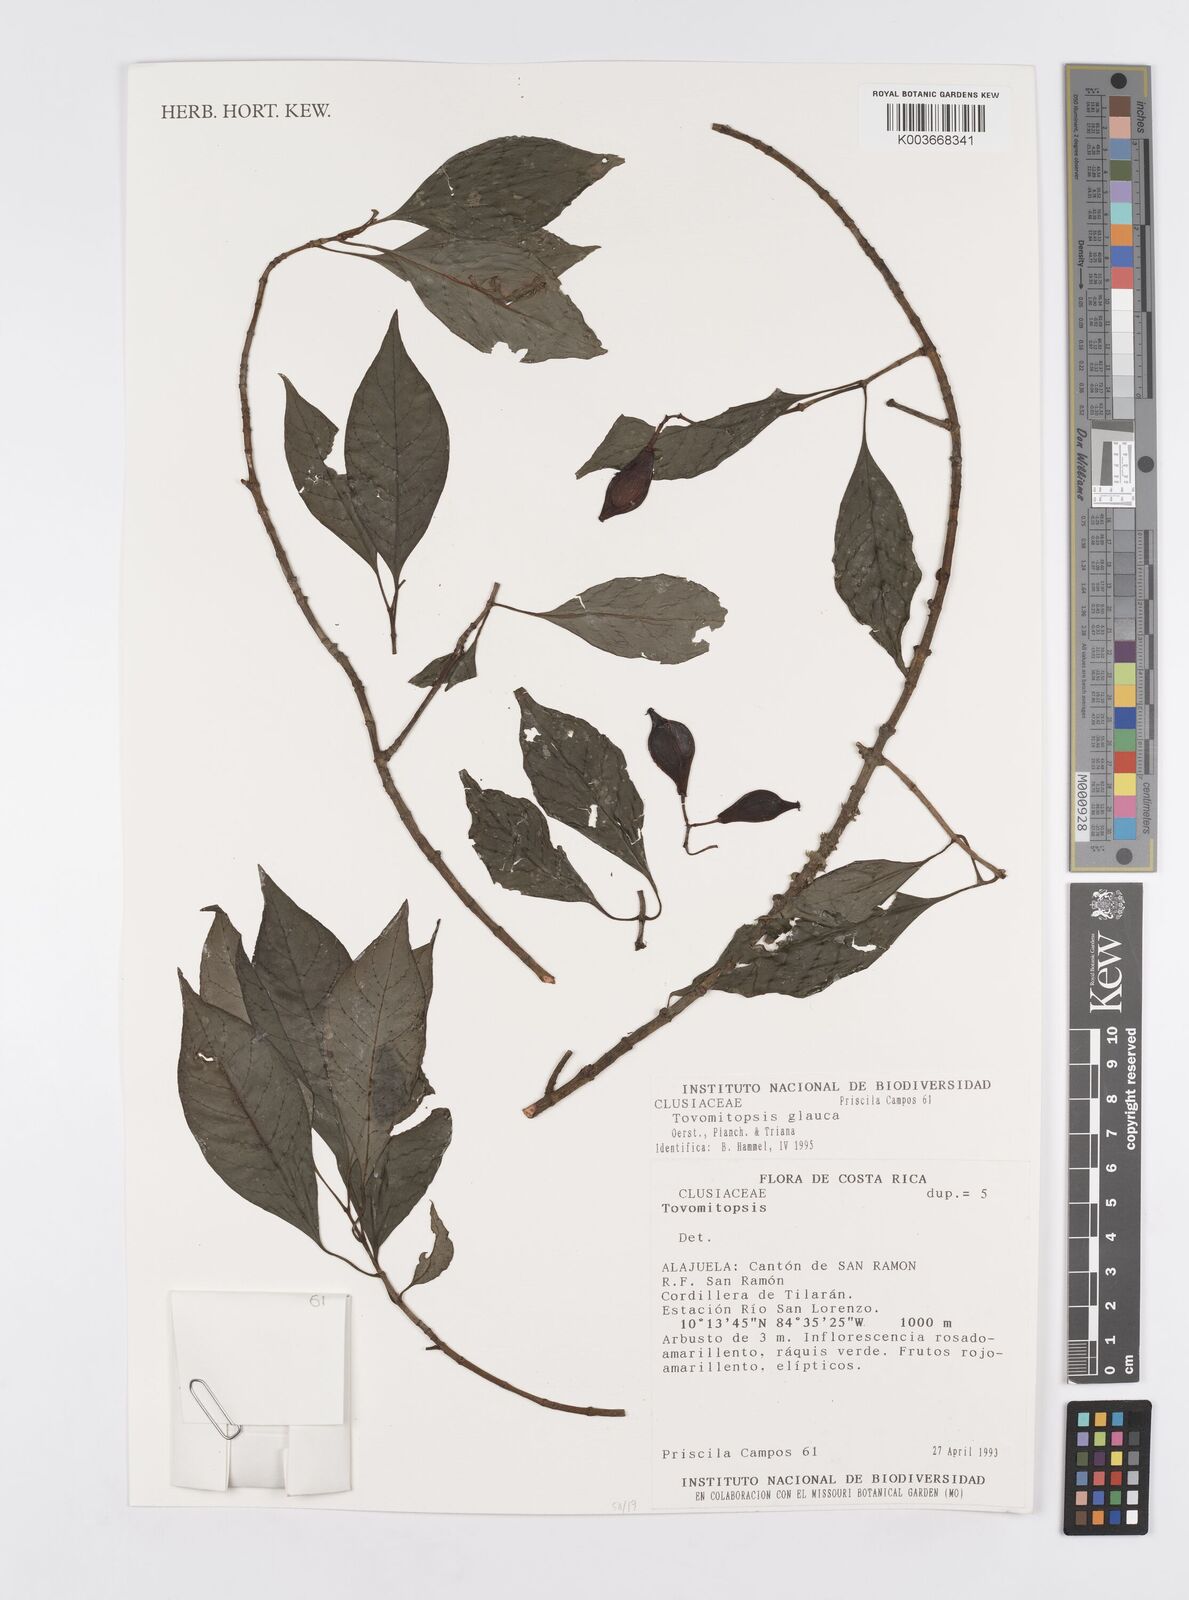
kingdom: Plantae
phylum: Tracheophyta
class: Magnoliopsida
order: Malpighiales
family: Clusiaceae
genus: Chrysochlamys
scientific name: Chrysochlamys glauca
